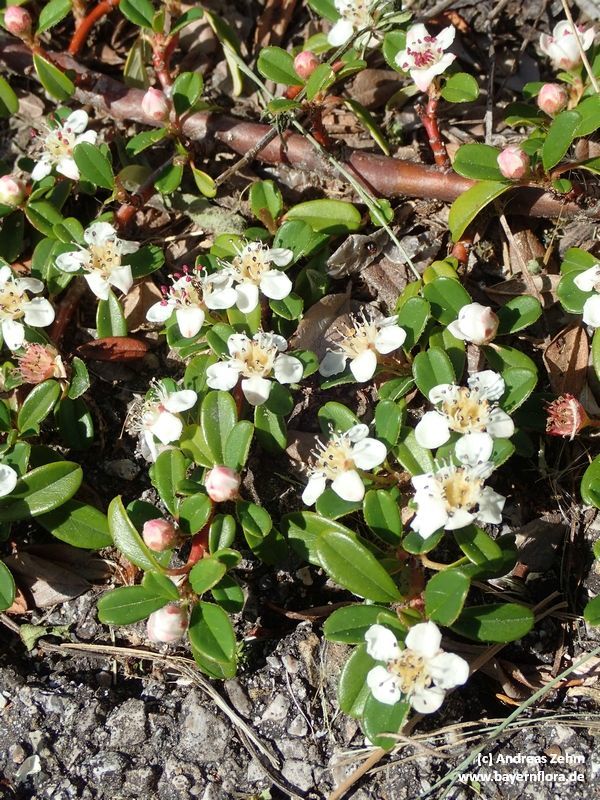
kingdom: Plantae
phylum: Tracheophyta
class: Magnoliopsida
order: Rosales
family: Rosaceae
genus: Cotoneaster
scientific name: Cotoneaster dammeri
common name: Bearberry cotoneaster
